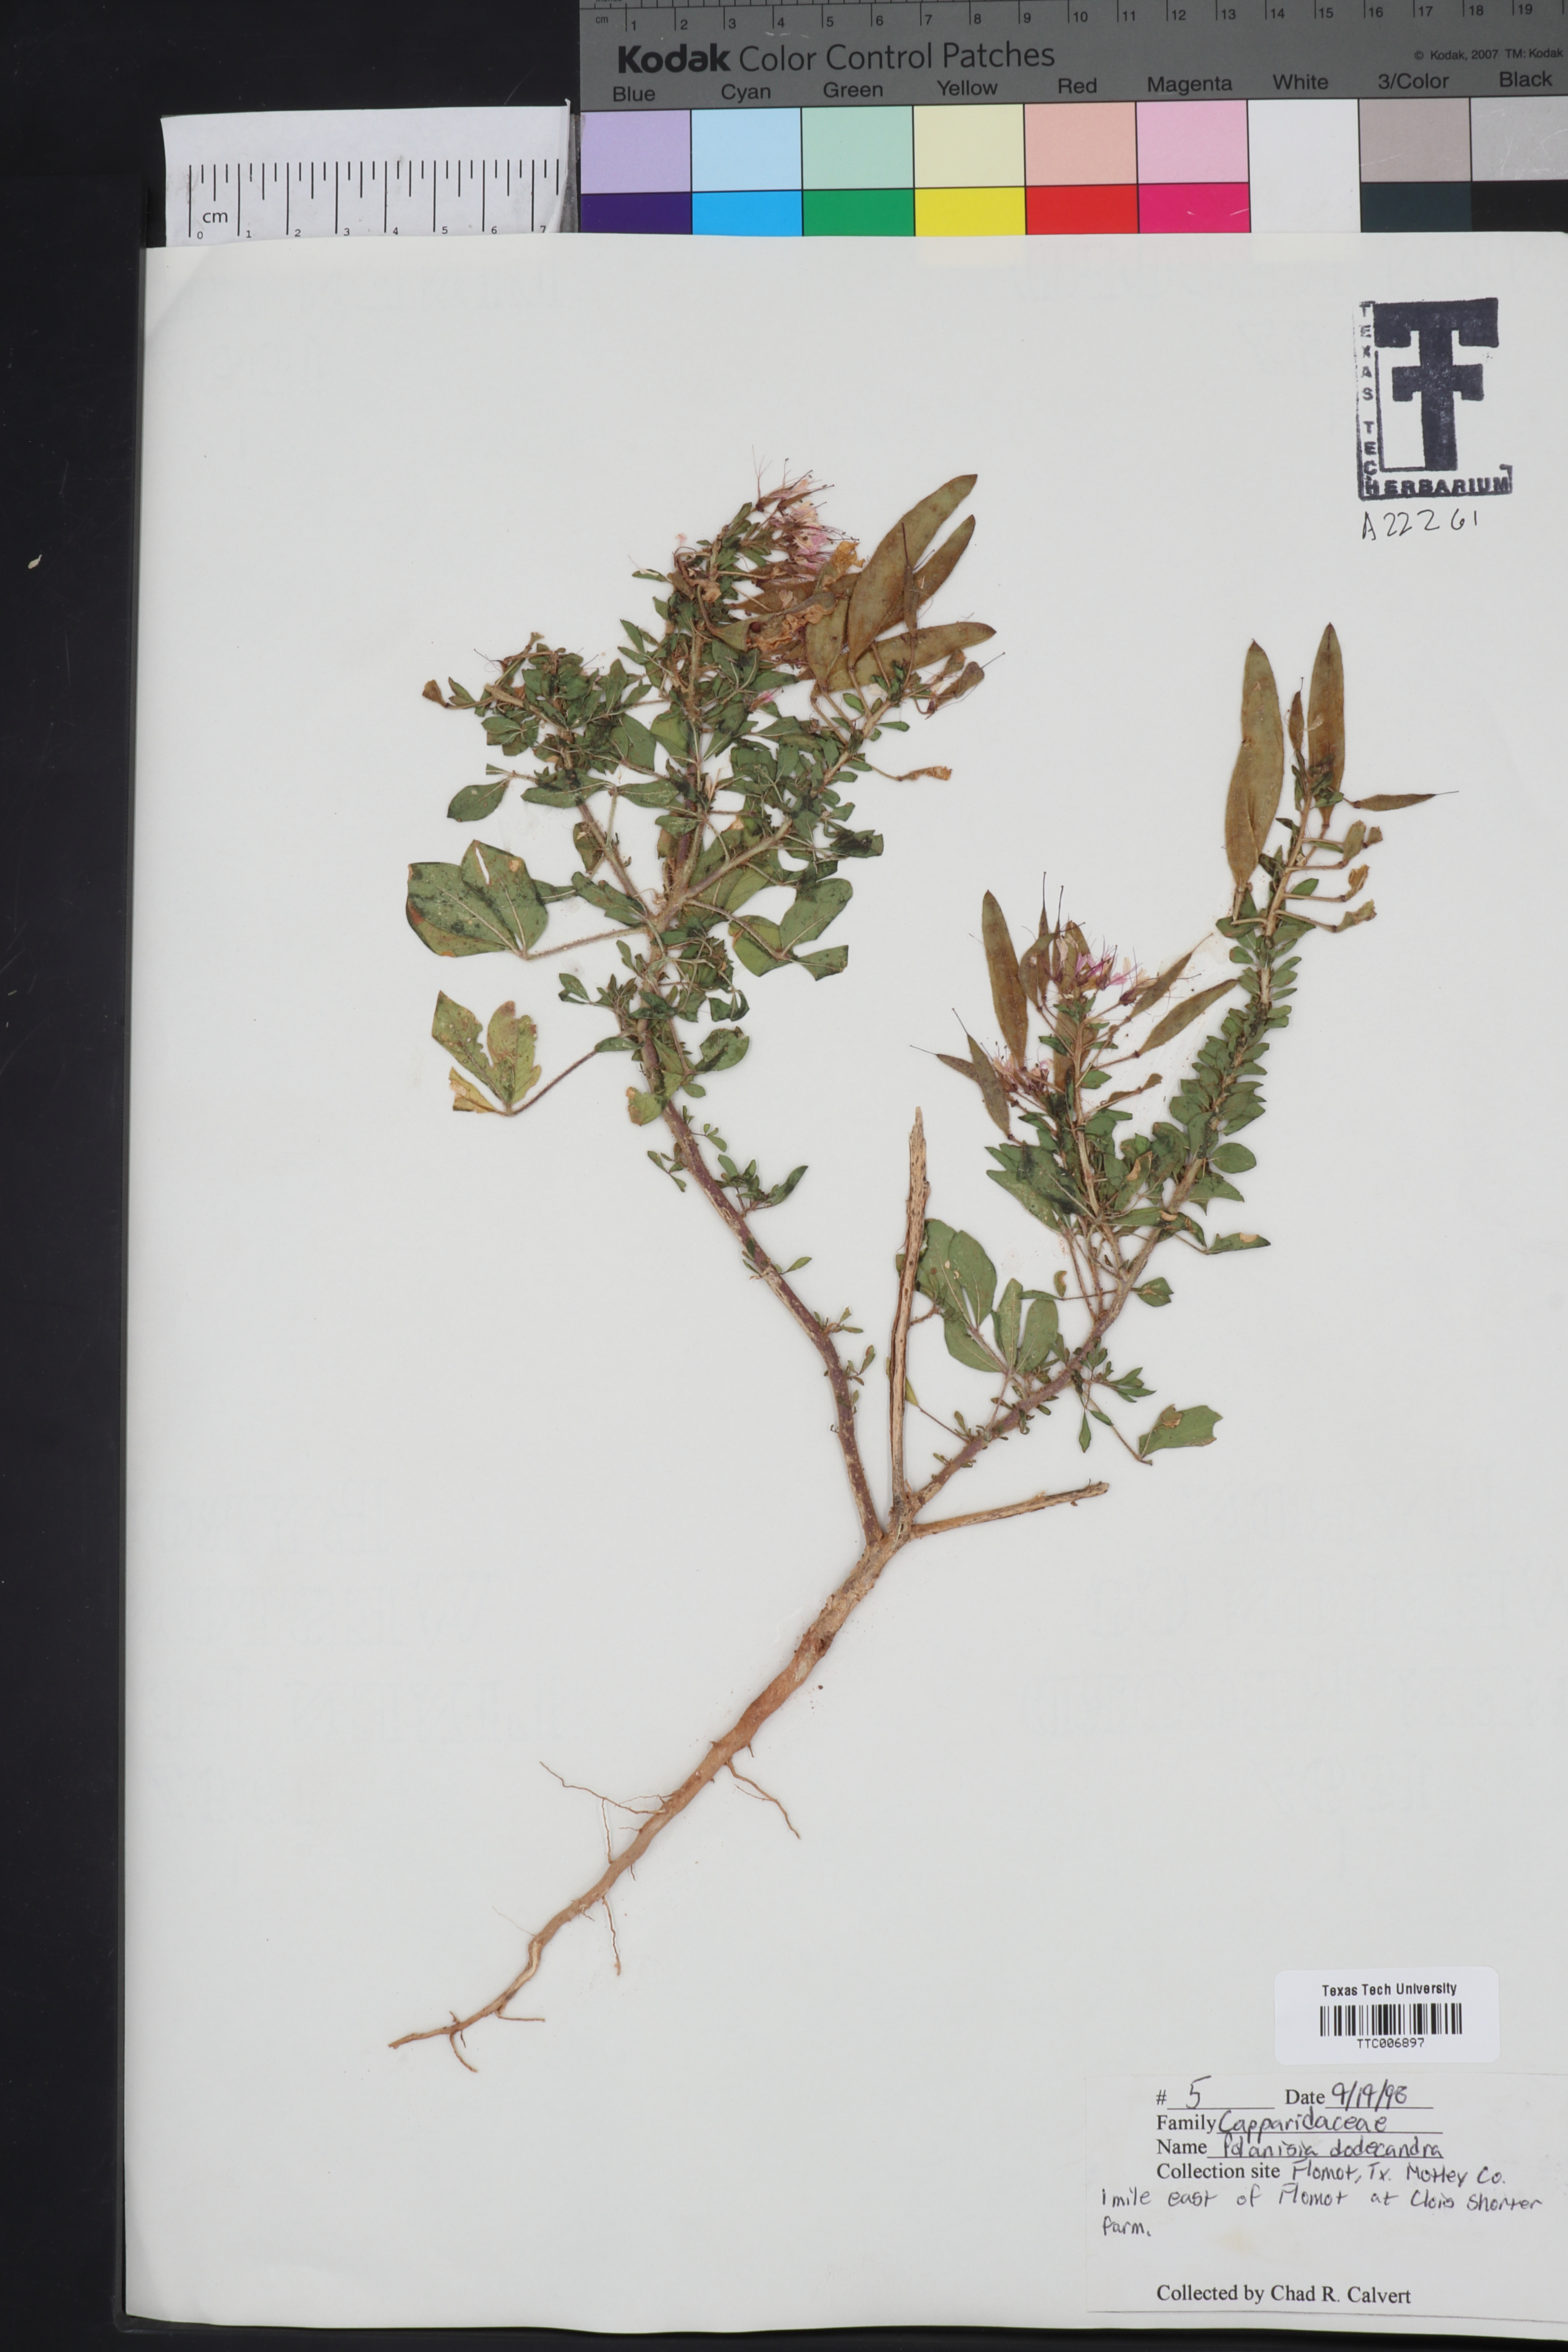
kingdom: Plantae
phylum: Tracheophyta
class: Magnoliopsida
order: Brassicales
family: Cleomaceae
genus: Polanisia
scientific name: Polanisia dodecandra
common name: Clammyweed
